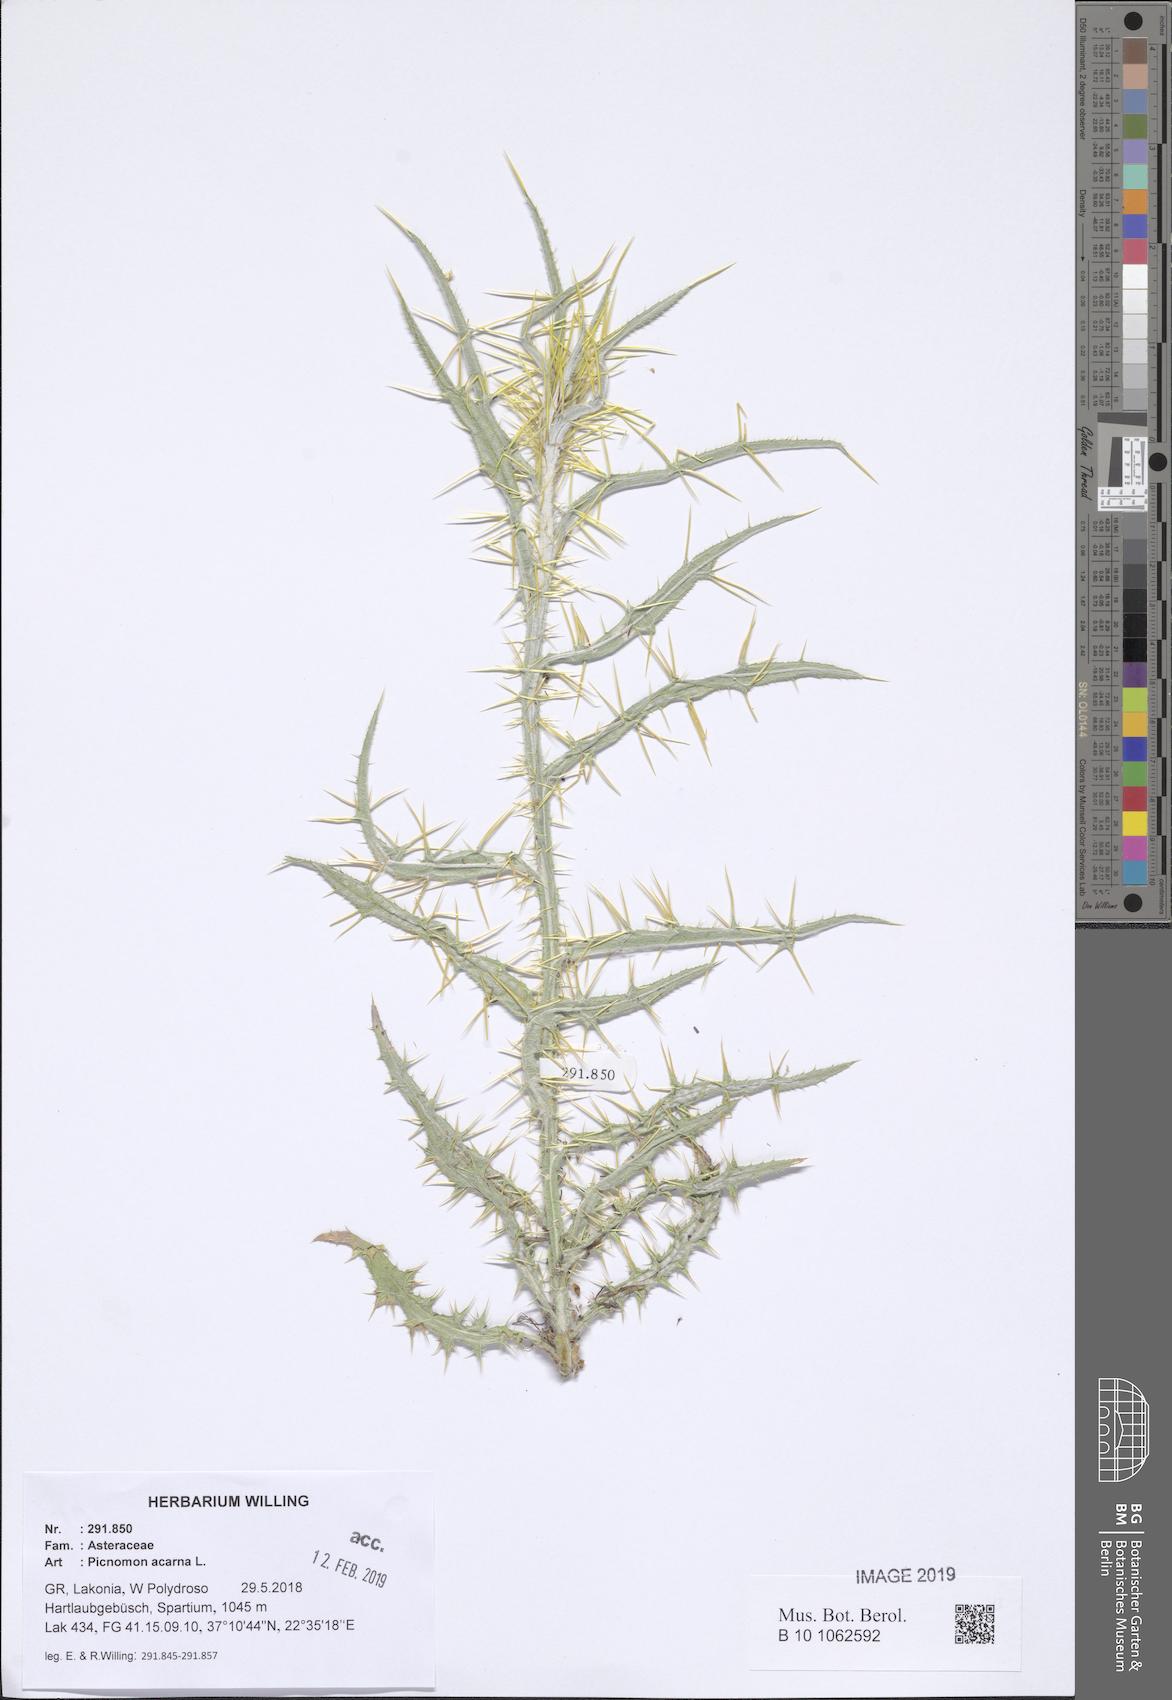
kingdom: Plantae
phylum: Tracheophyta
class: Magnoliopsida
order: Asterales
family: Asteraceae
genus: Picnomon
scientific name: Picnomon acarna
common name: Soldier thistle
